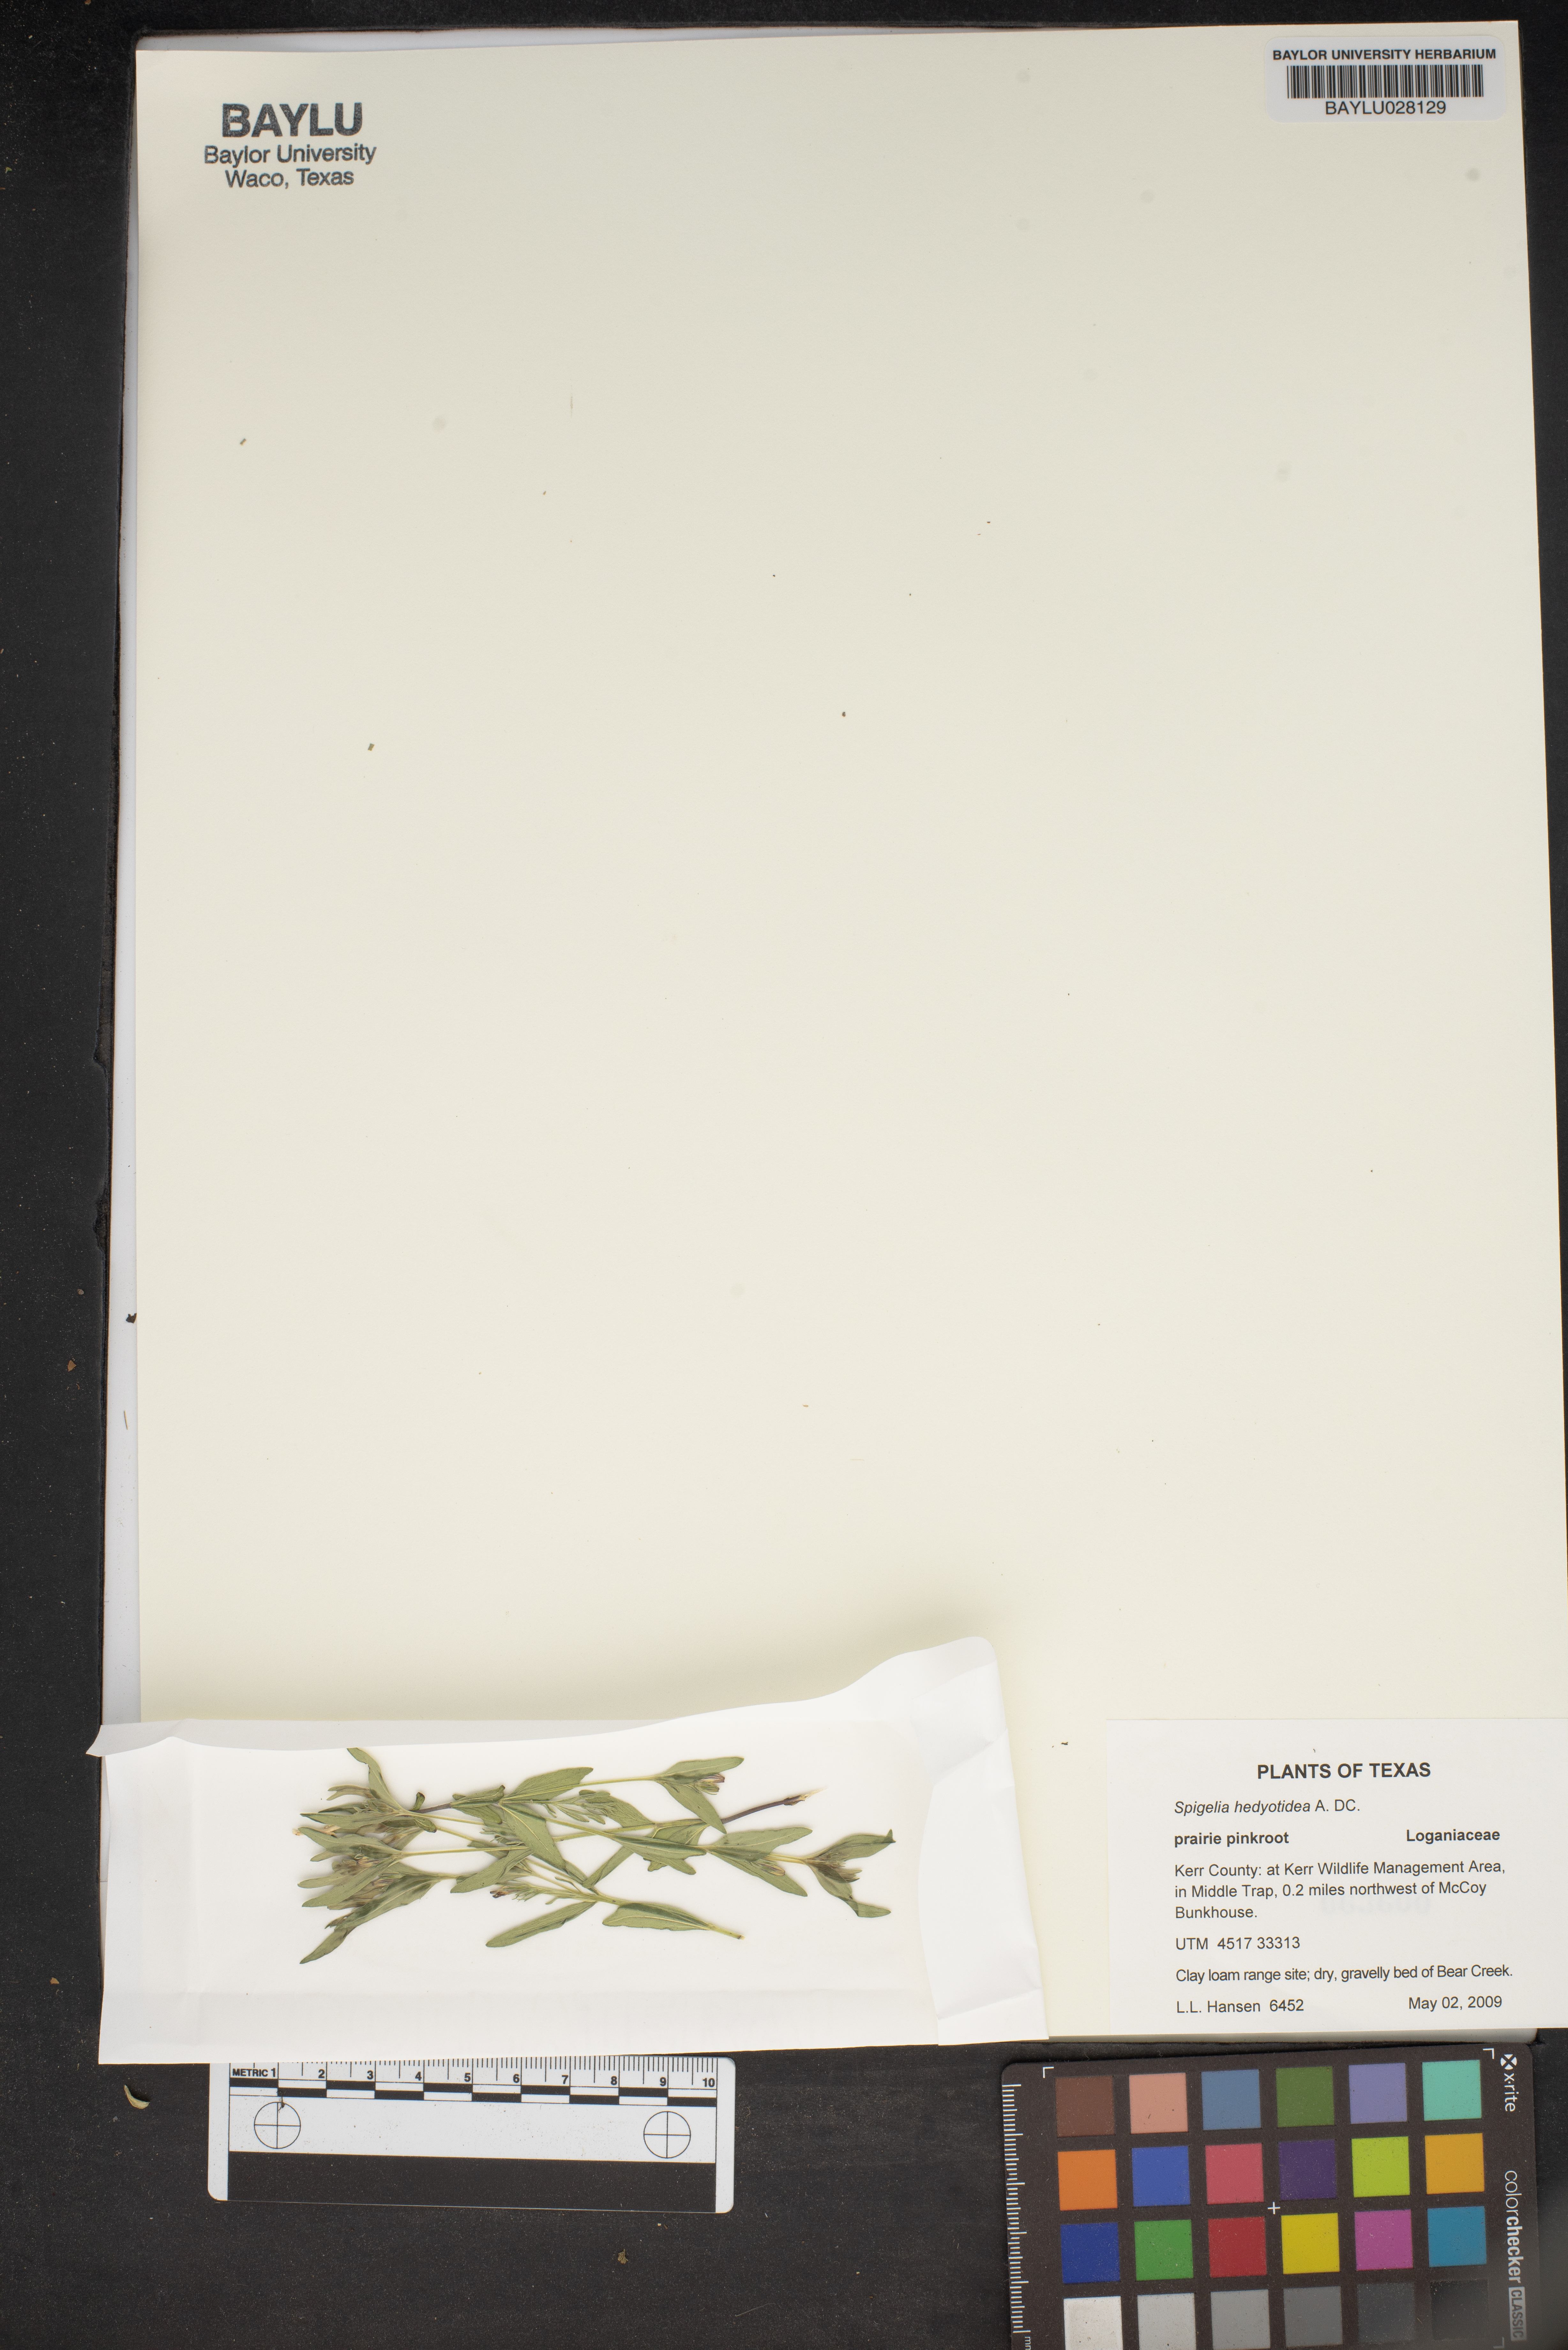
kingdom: Plantae
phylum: Tracheophyta
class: Magnoliopsida
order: Gentianales
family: Loganiaceae
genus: Spigelia
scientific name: Spigelia hedyotidea
